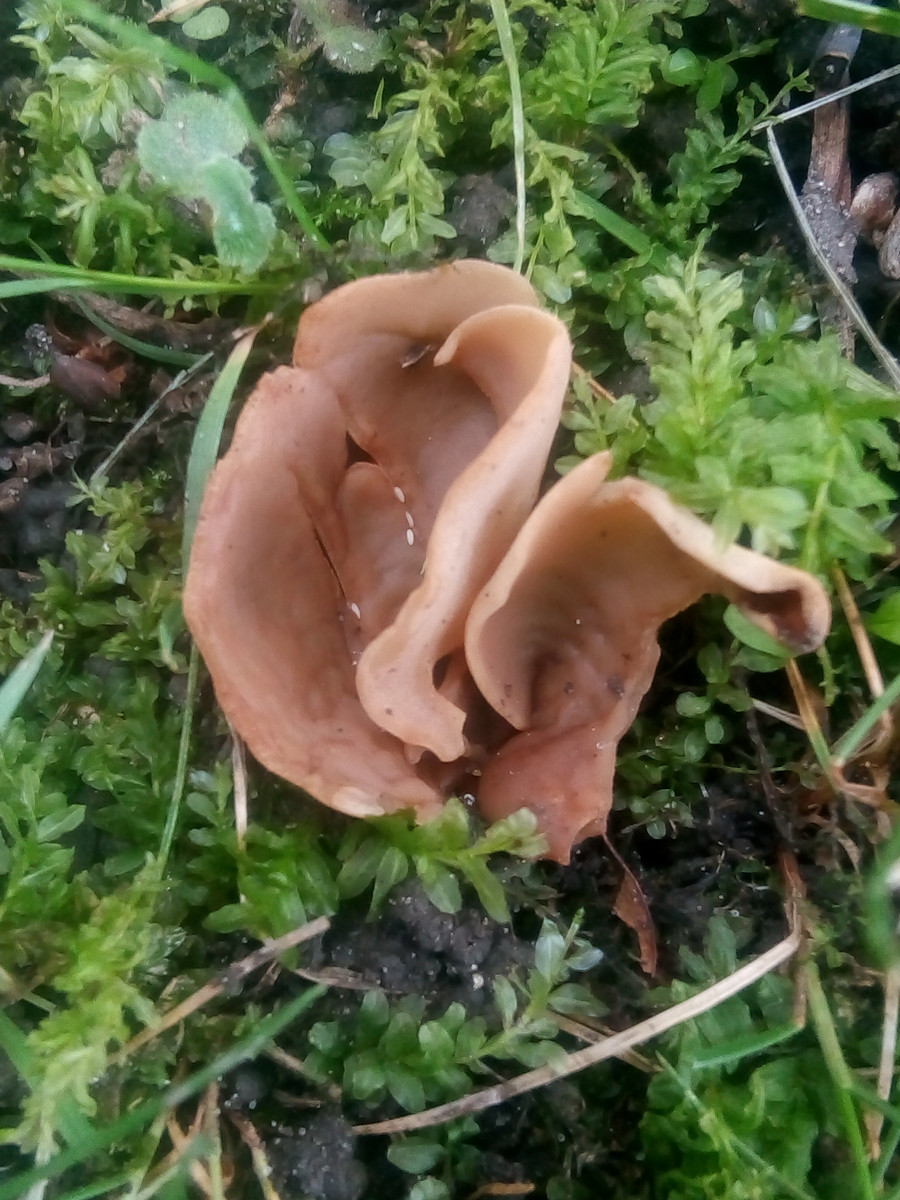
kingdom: Fungi
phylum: Ascomycota
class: Pezizomycetes
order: Pezizales
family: Otideaceae
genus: Otidea
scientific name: Otidea alutacea
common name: læder-ørebæger
